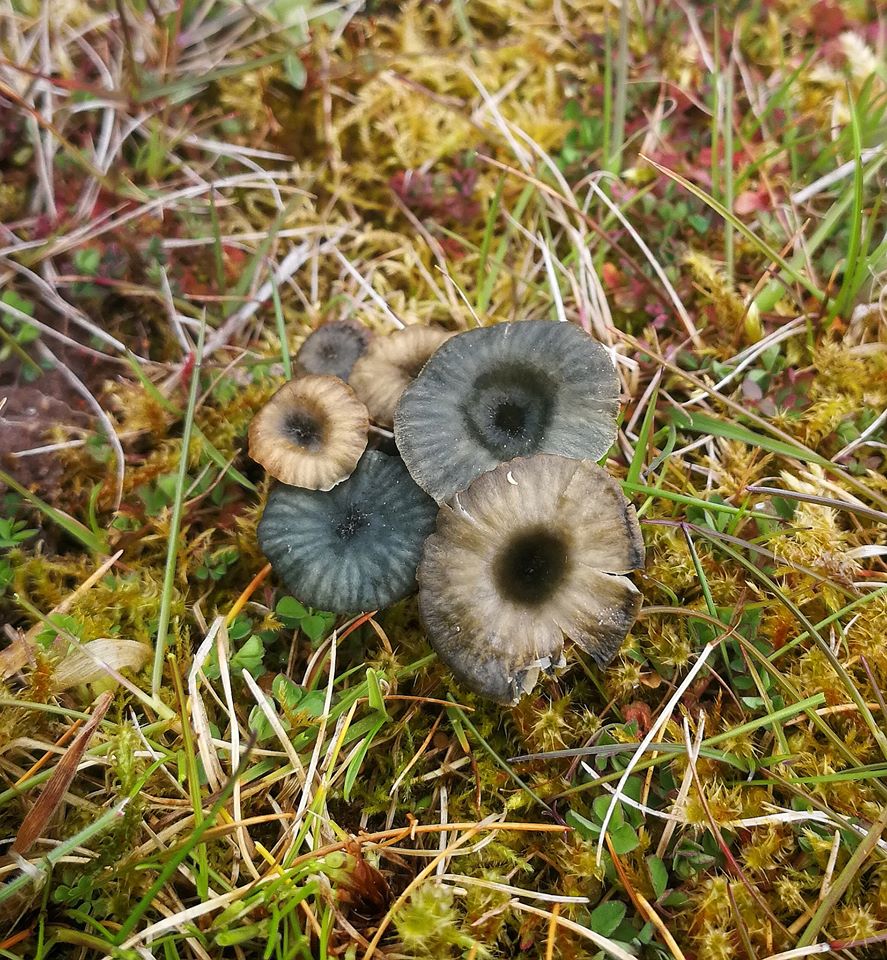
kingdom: Fungi
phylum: Basidiomycota
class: Agaricomycetes
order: Agaricales
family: Hygrophoraceae
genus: Arrhenia
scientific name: Arrhenia chlorocyanea
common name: blågrøn fontænehat
